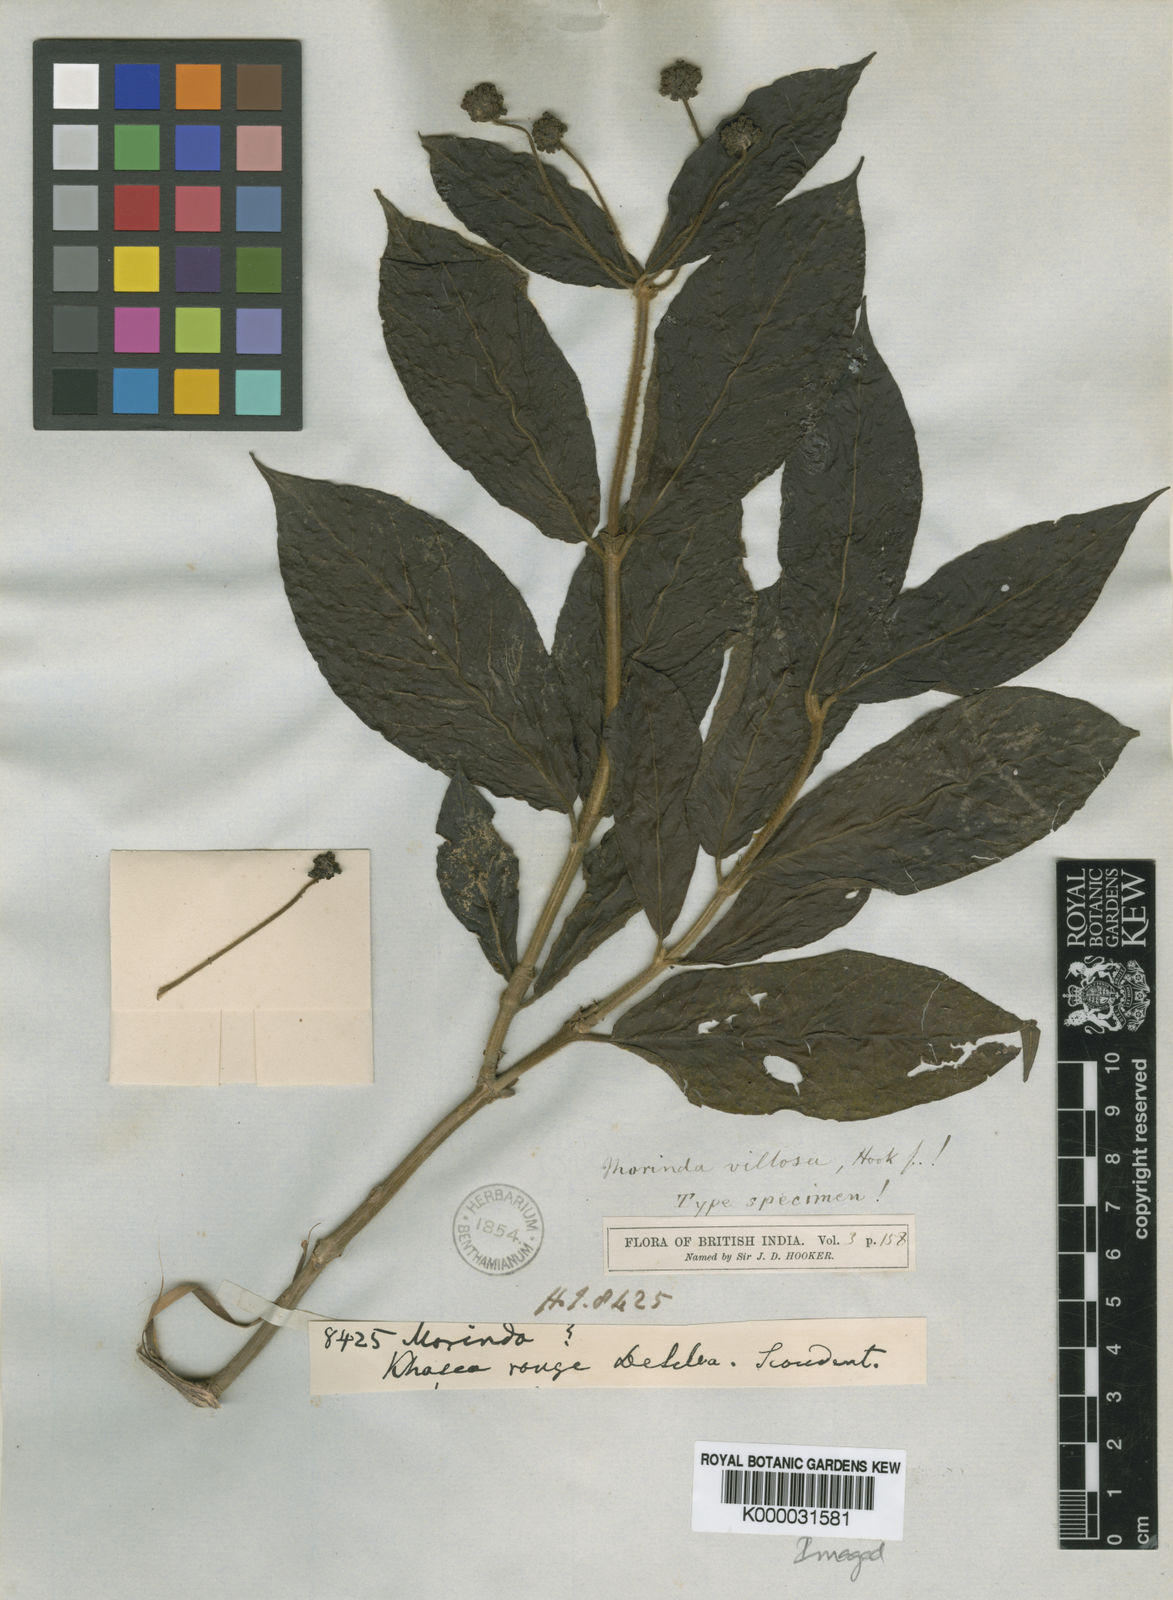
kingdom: Plantae
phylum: Tracheophyta
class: Magnoliopsida
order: Gentianales
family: Rubiaceae
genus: Gynochthodes
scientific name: Gynochthodes villosa
